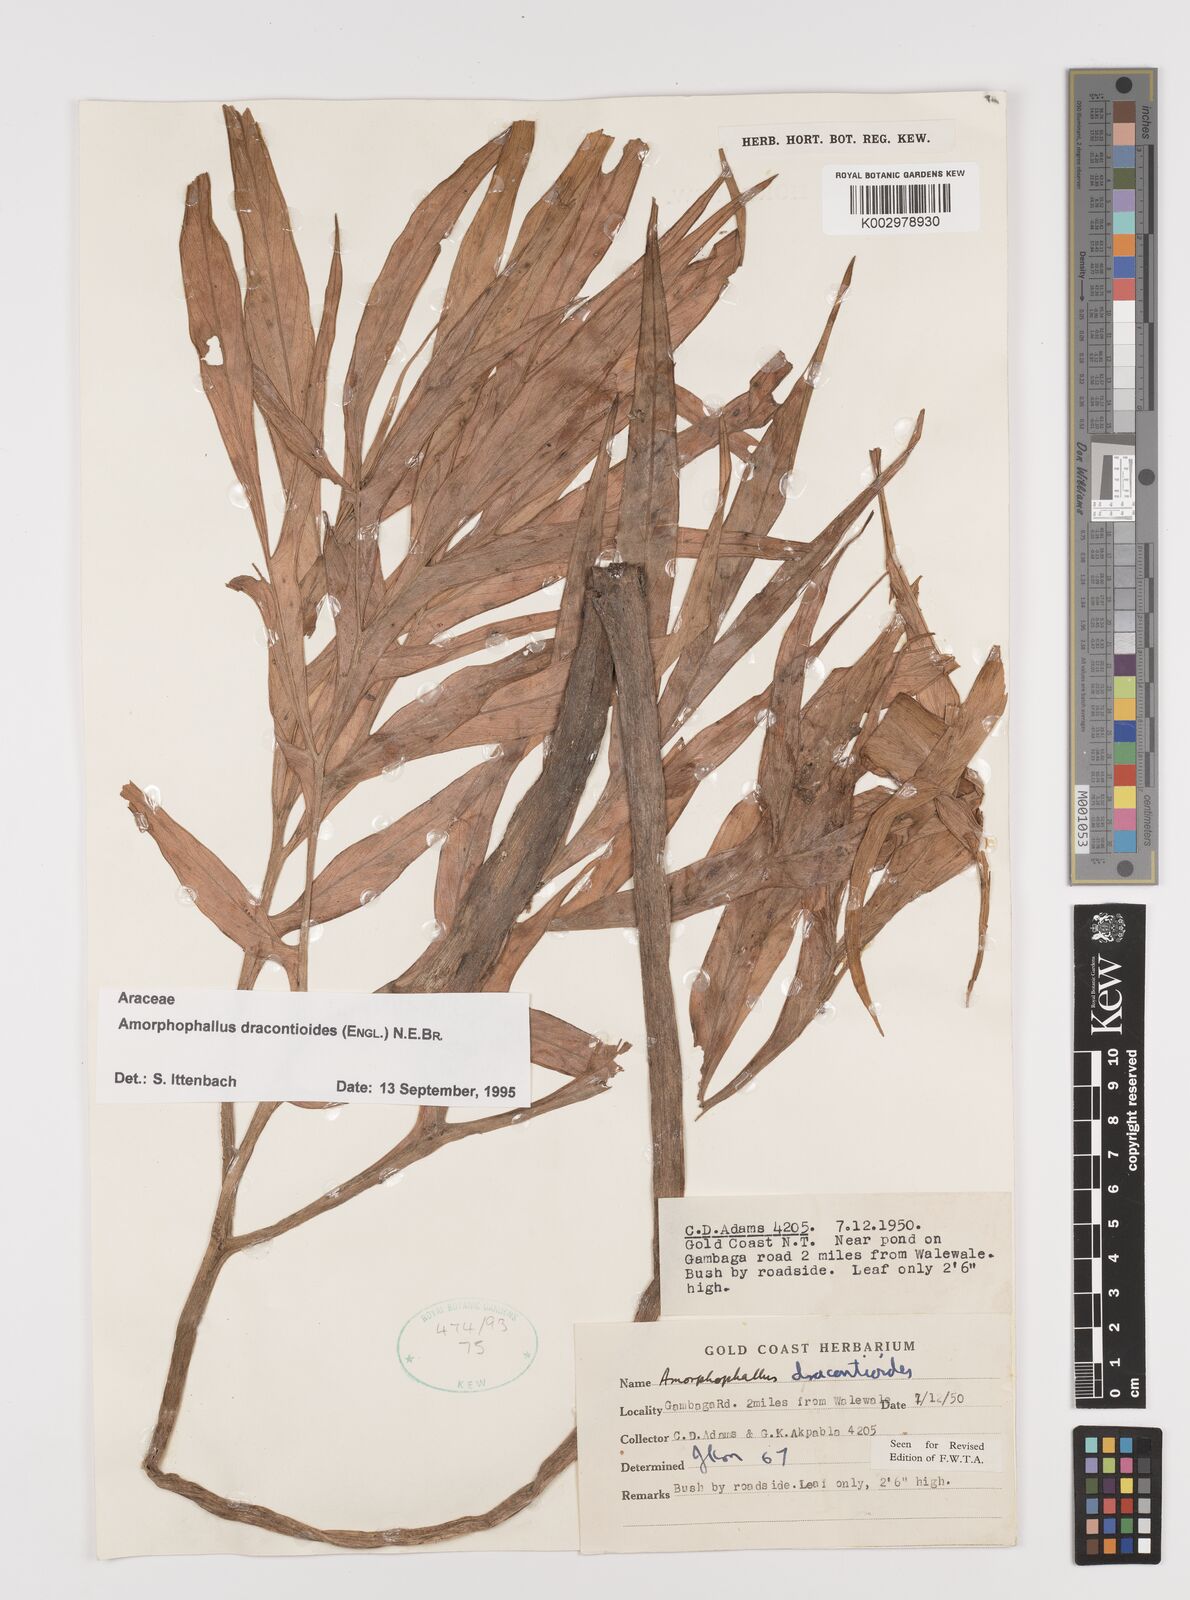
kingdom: Plantae
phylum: Tracheophyta
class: Liliopsida
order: Alismatales
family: Araceae
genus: Amorphophallus
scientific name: Amorphophallus dracontioides
